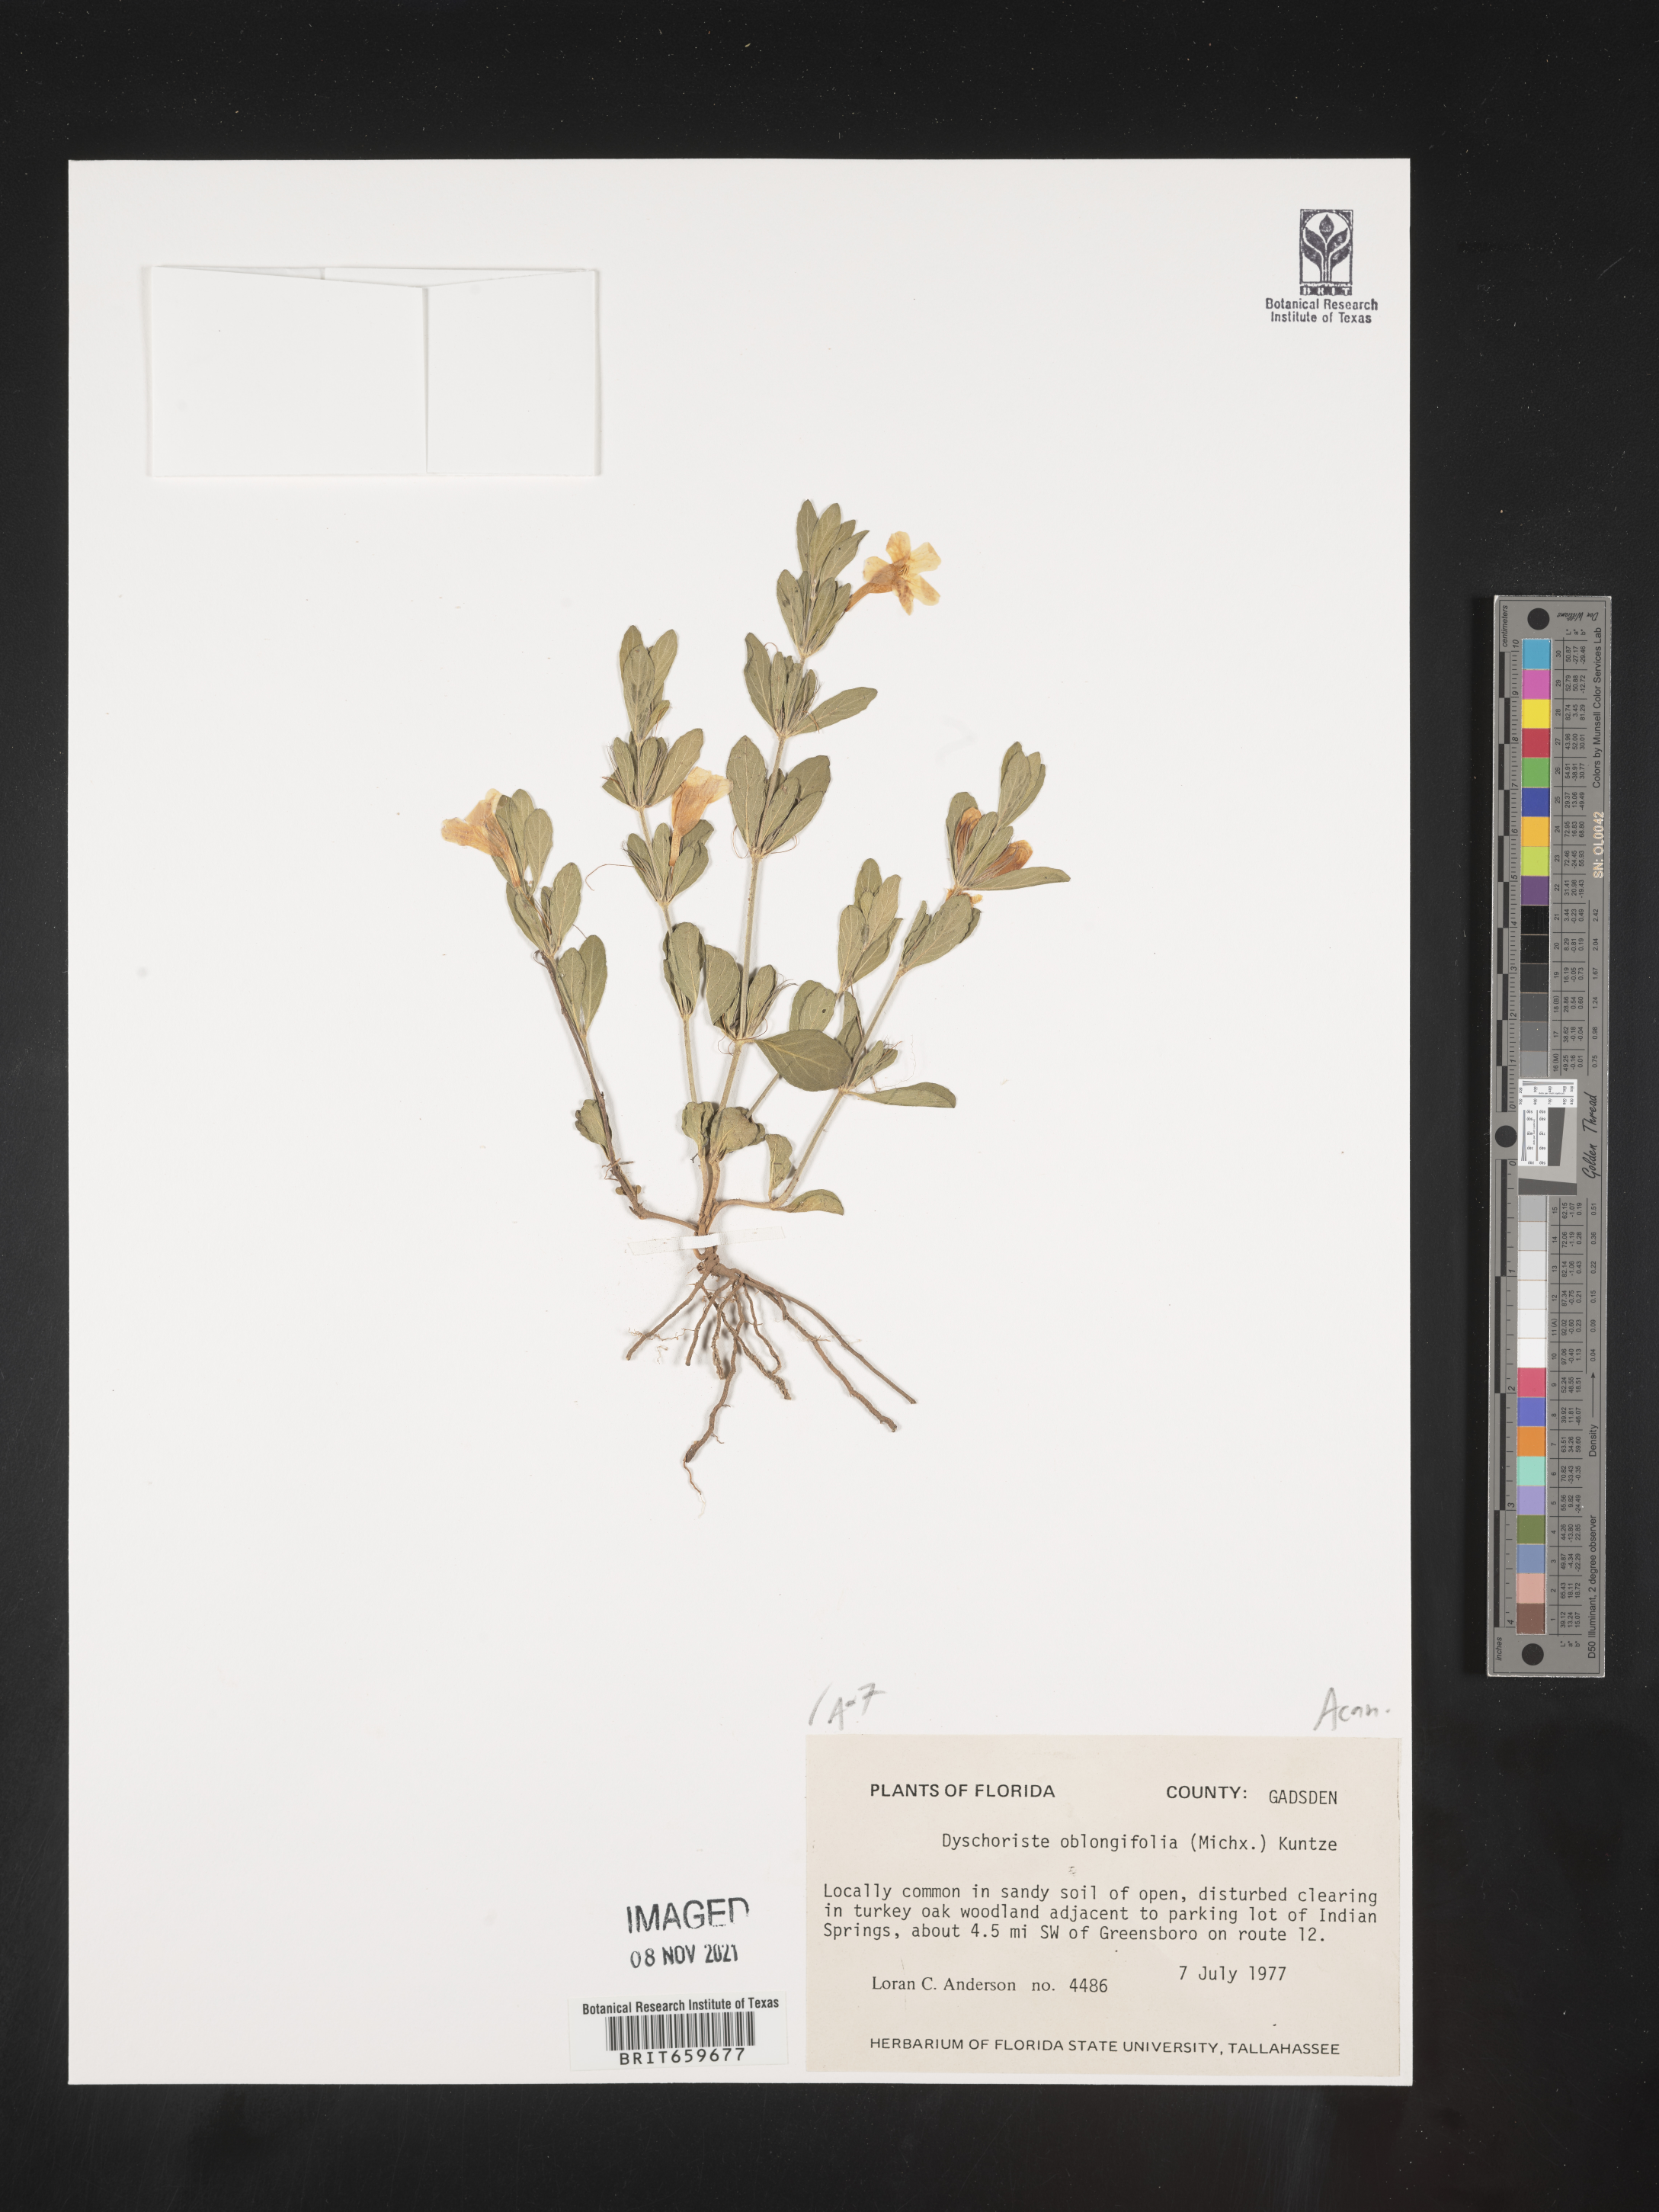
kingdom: Plantae
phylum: Tracheophyta
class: Magnoliopsida
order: Lamiales
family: Acanthaceae
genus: Dyschoriste
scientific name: Dyschoriste oblongifolia
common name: Blue twinflower
